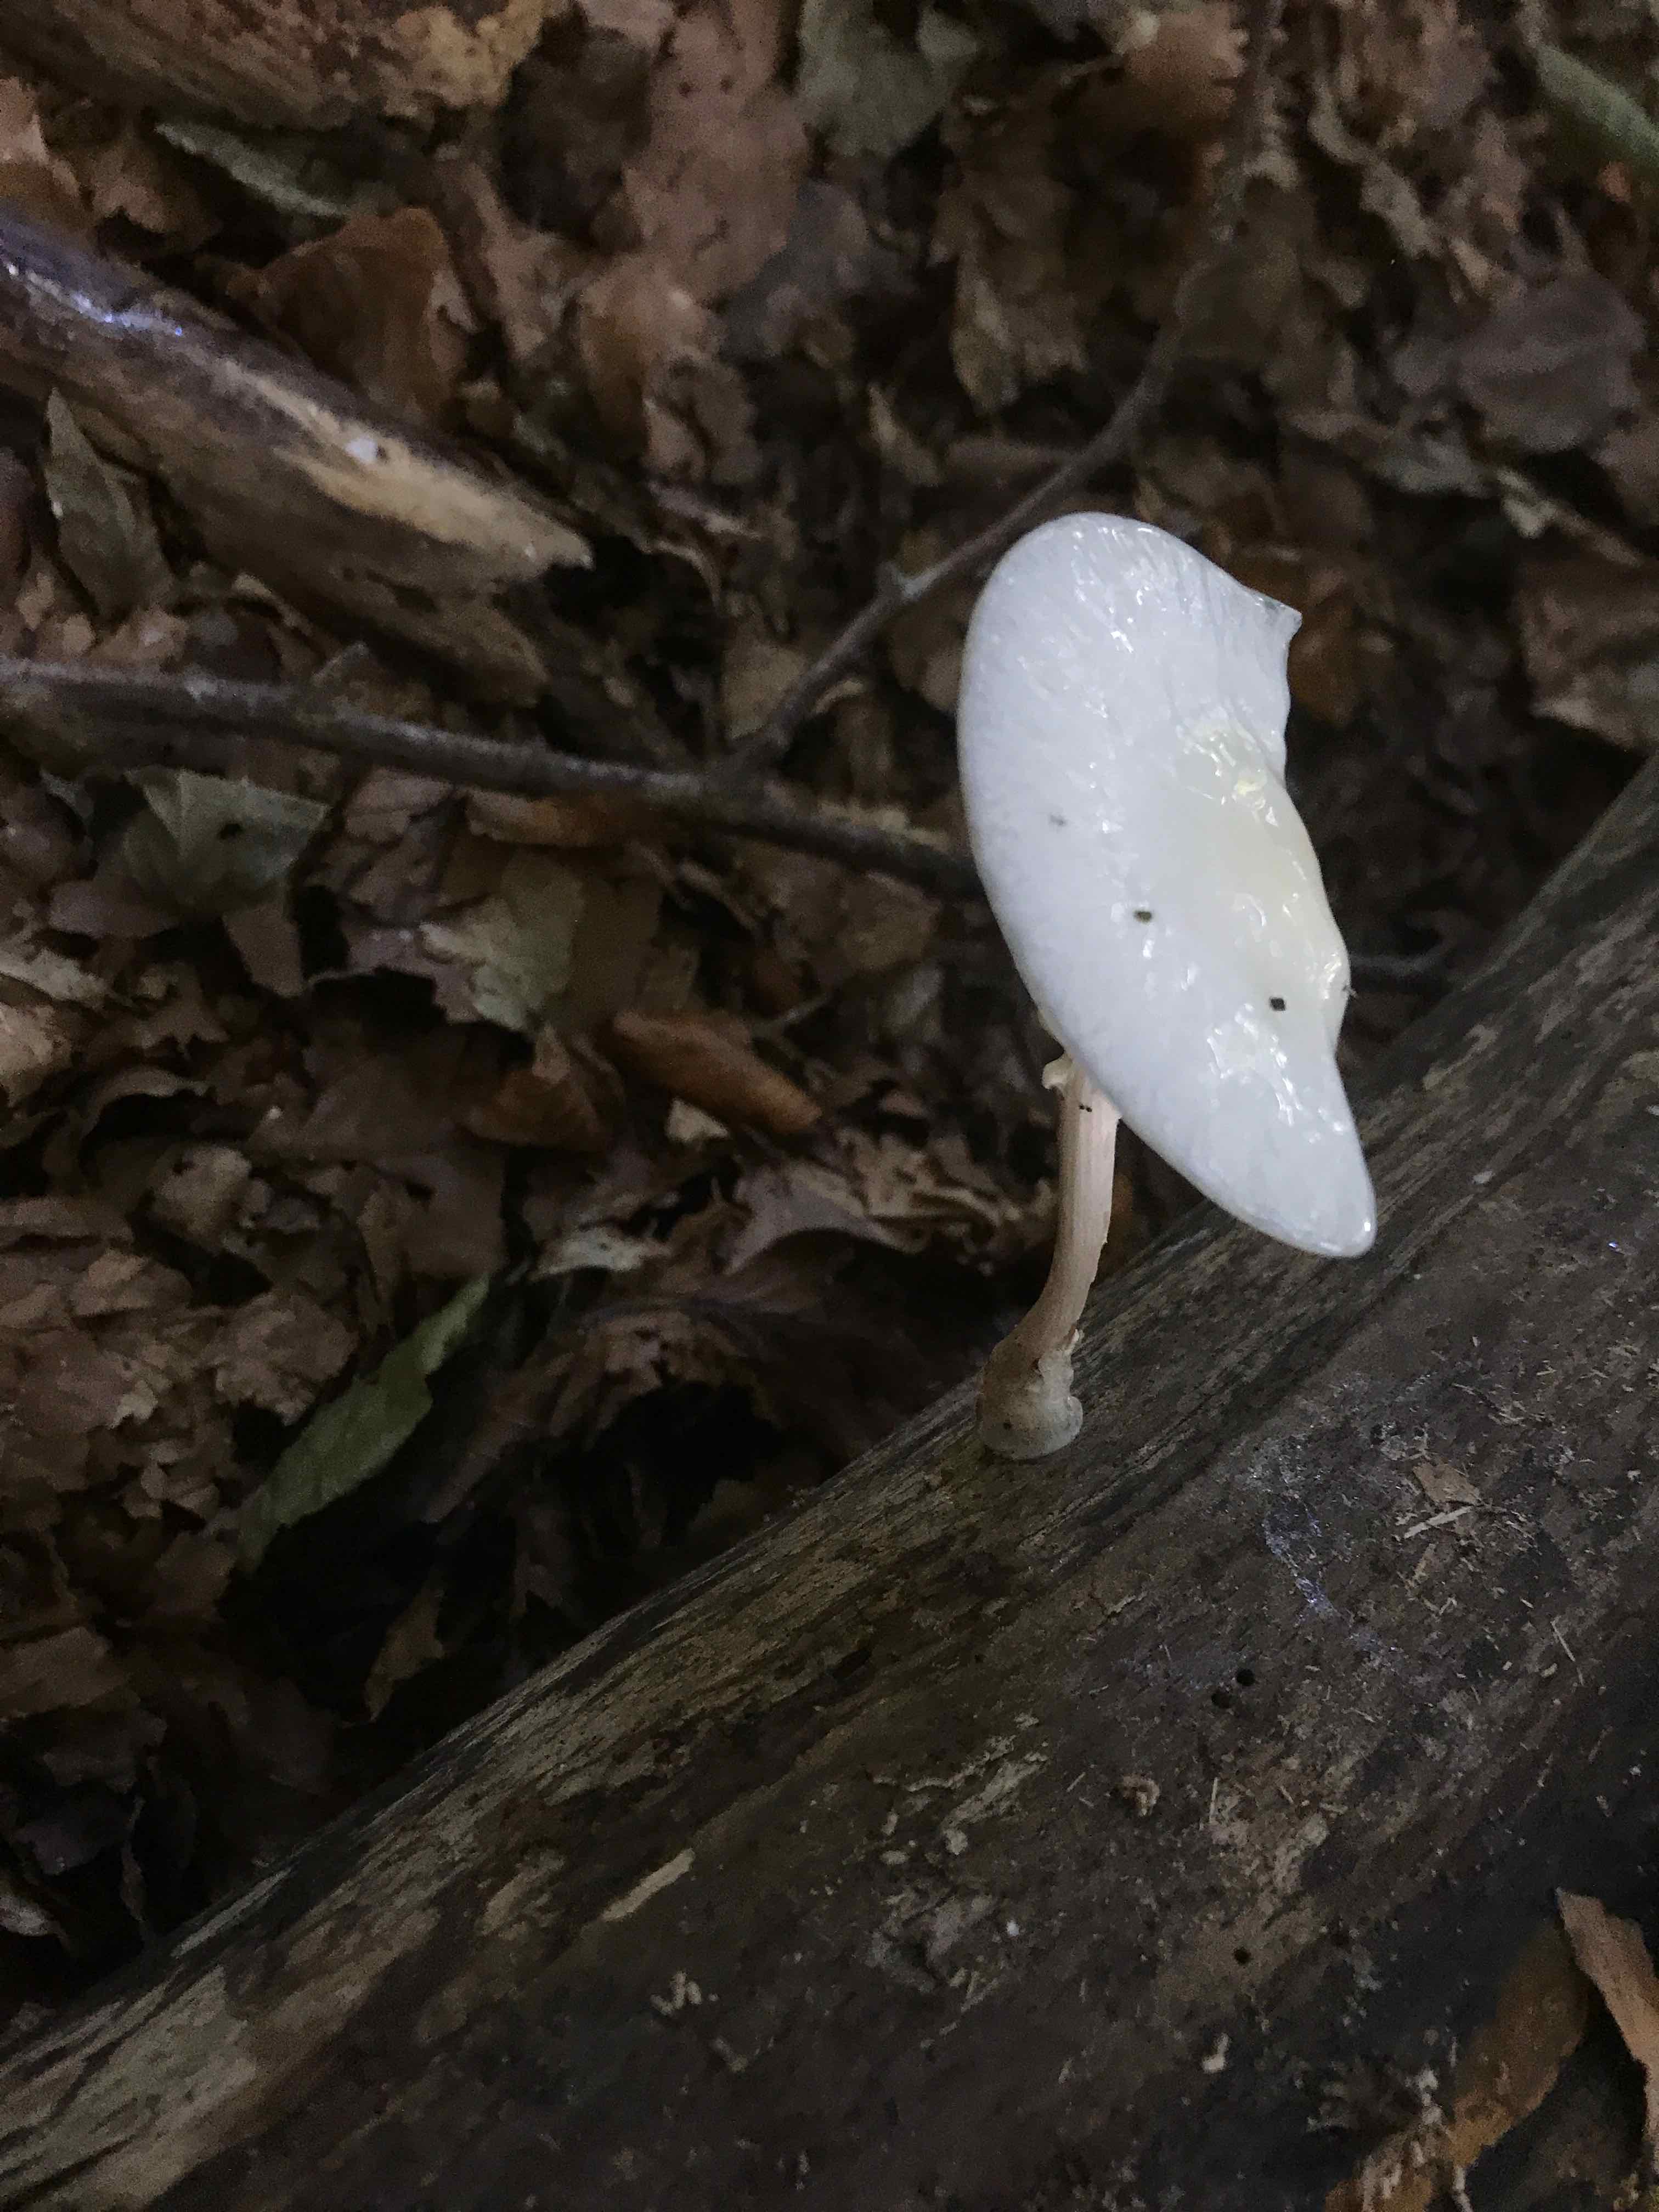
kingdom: Fungi
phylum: Basidiomycota
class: Agaricomycetes
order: Agaricales
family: Physalacriaceae
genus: Mucidula
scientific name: Mucidula mucida
